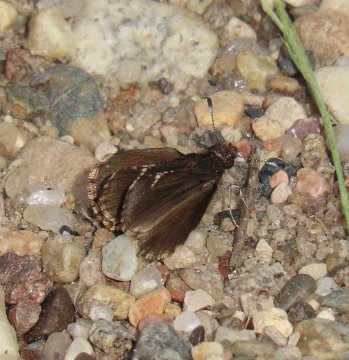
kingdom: Animalia
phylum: Arthropoda
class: Insecta
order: Lepidoptera
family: Hesperiidae
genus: Mastor
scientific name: Mastor vialis
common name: Common Roadside-Skipper
